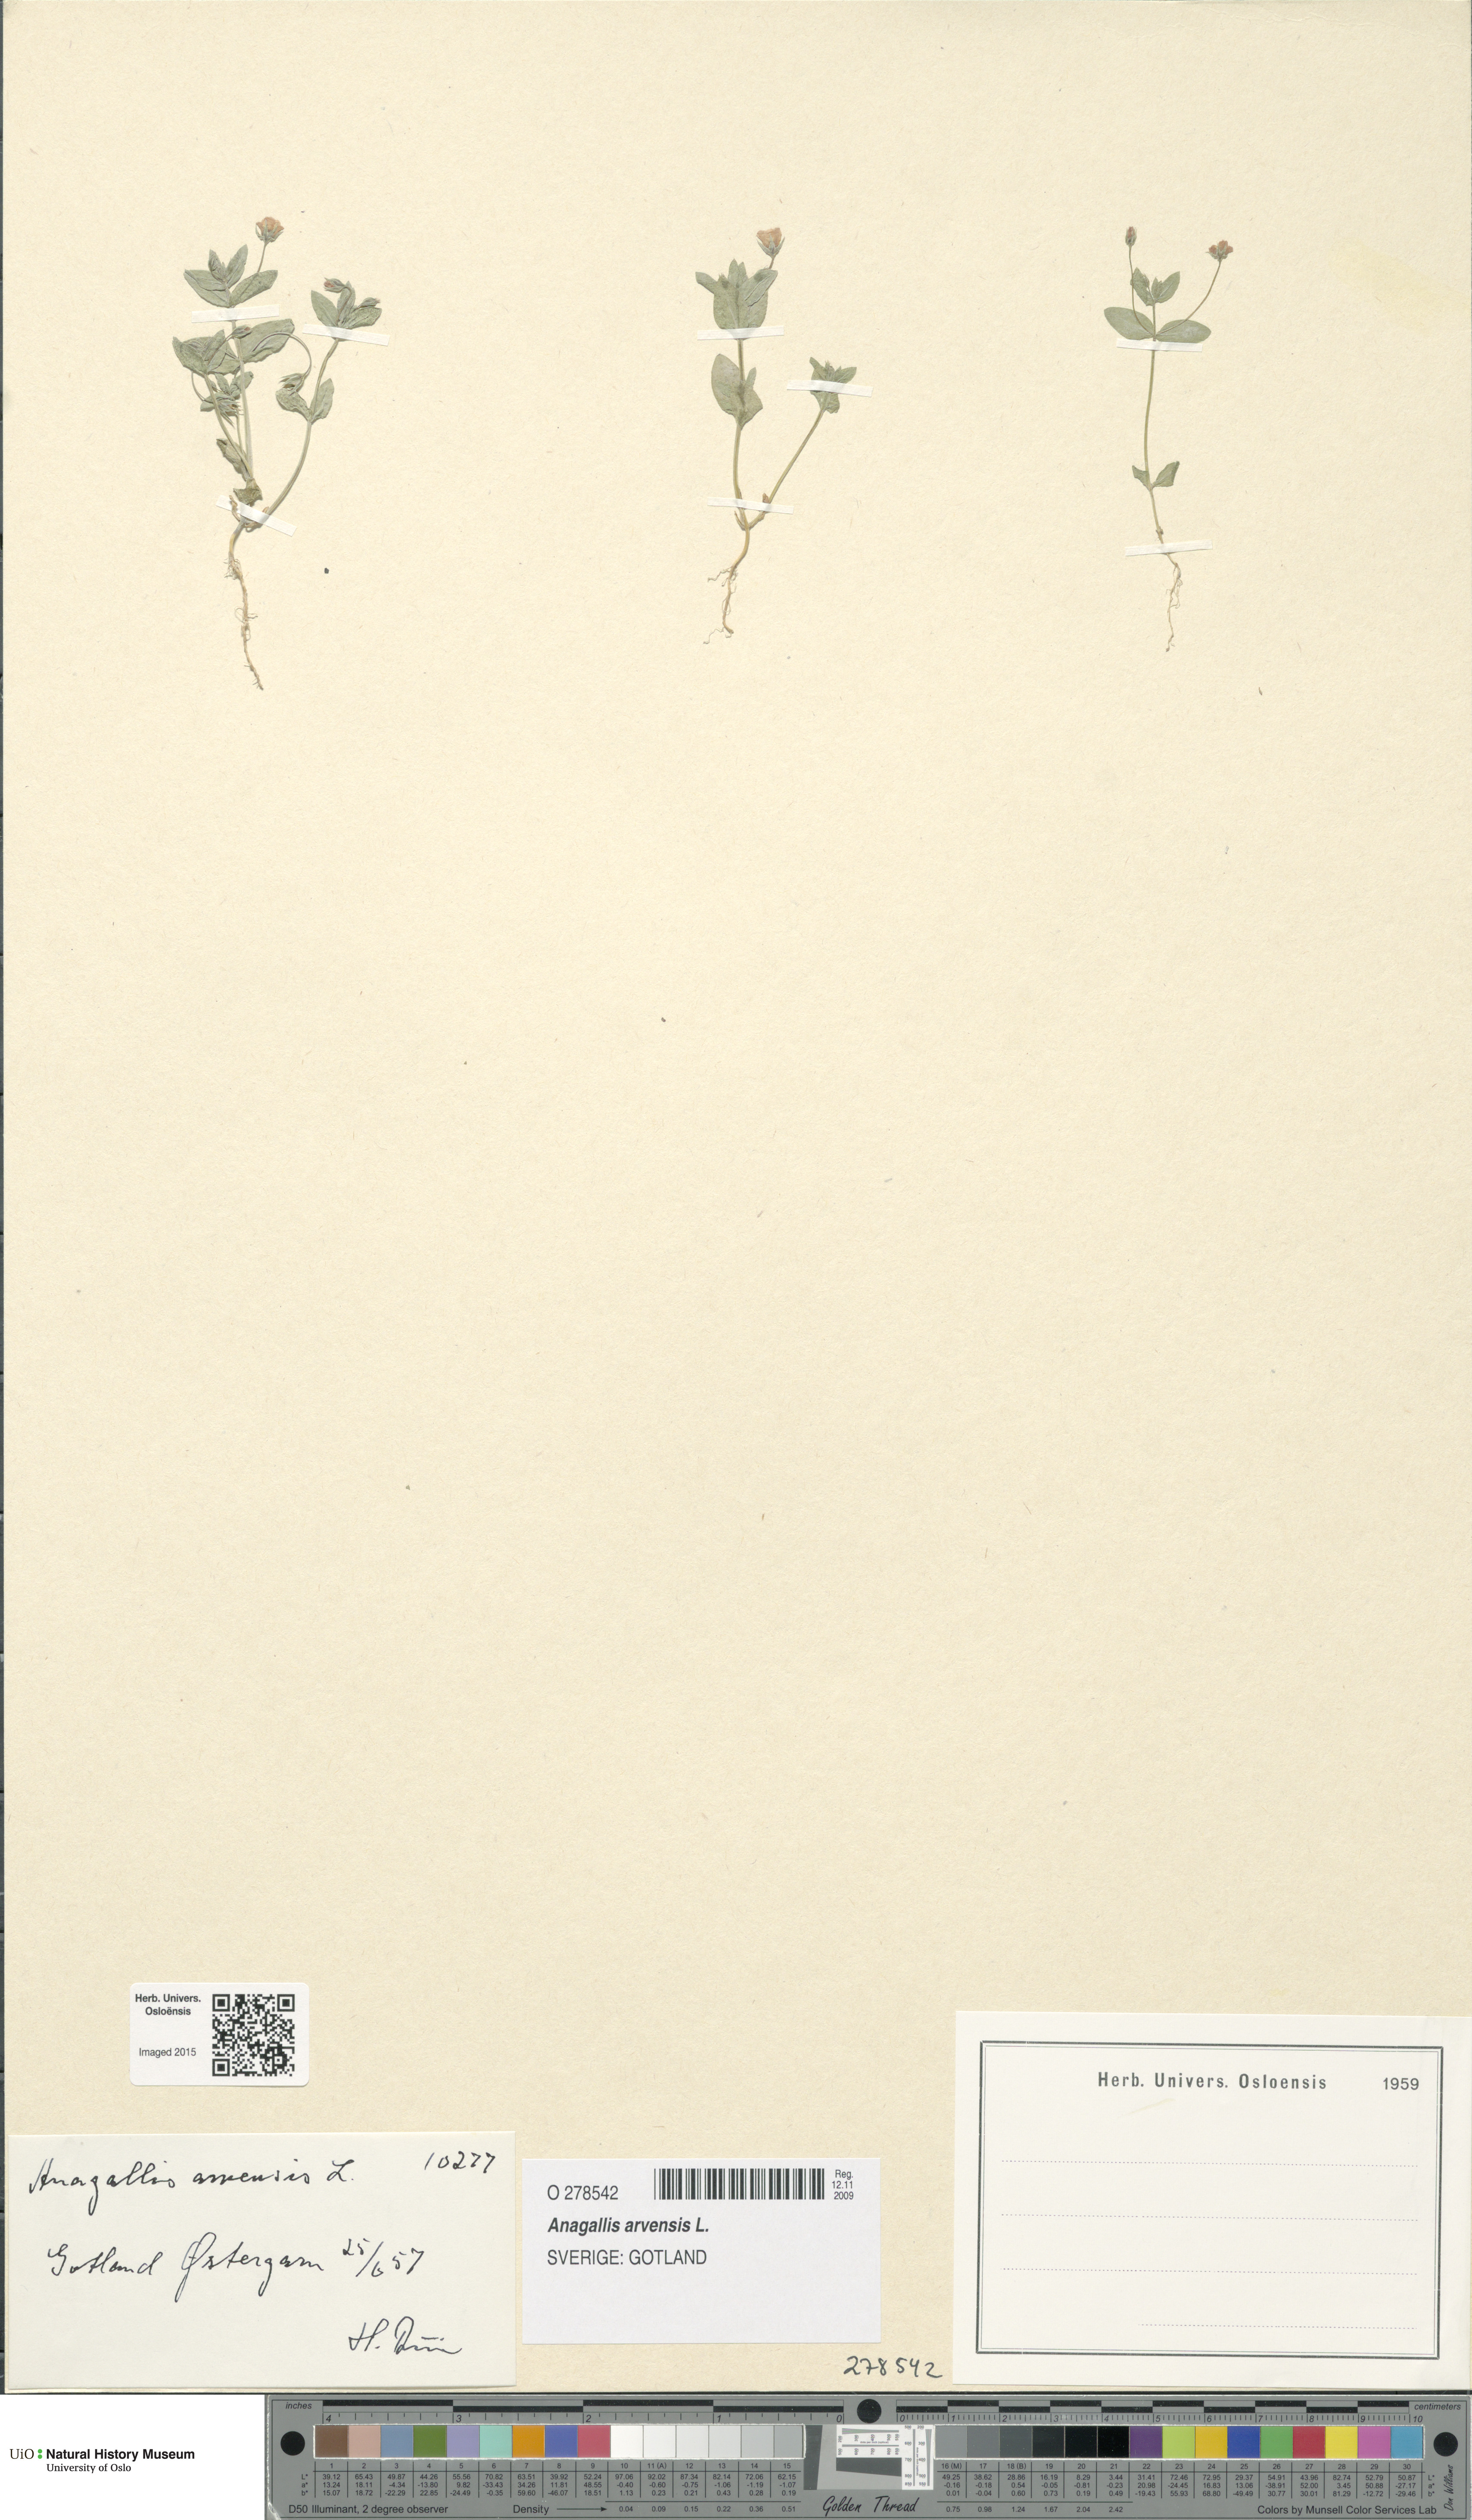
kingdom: Plantae
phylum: Tracheophyta
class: Magnoliopsida
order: Ericales
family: Primulaceae
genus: Lysimachia
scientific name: Lysimachia arvensis
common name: Scarlet pimpernel
